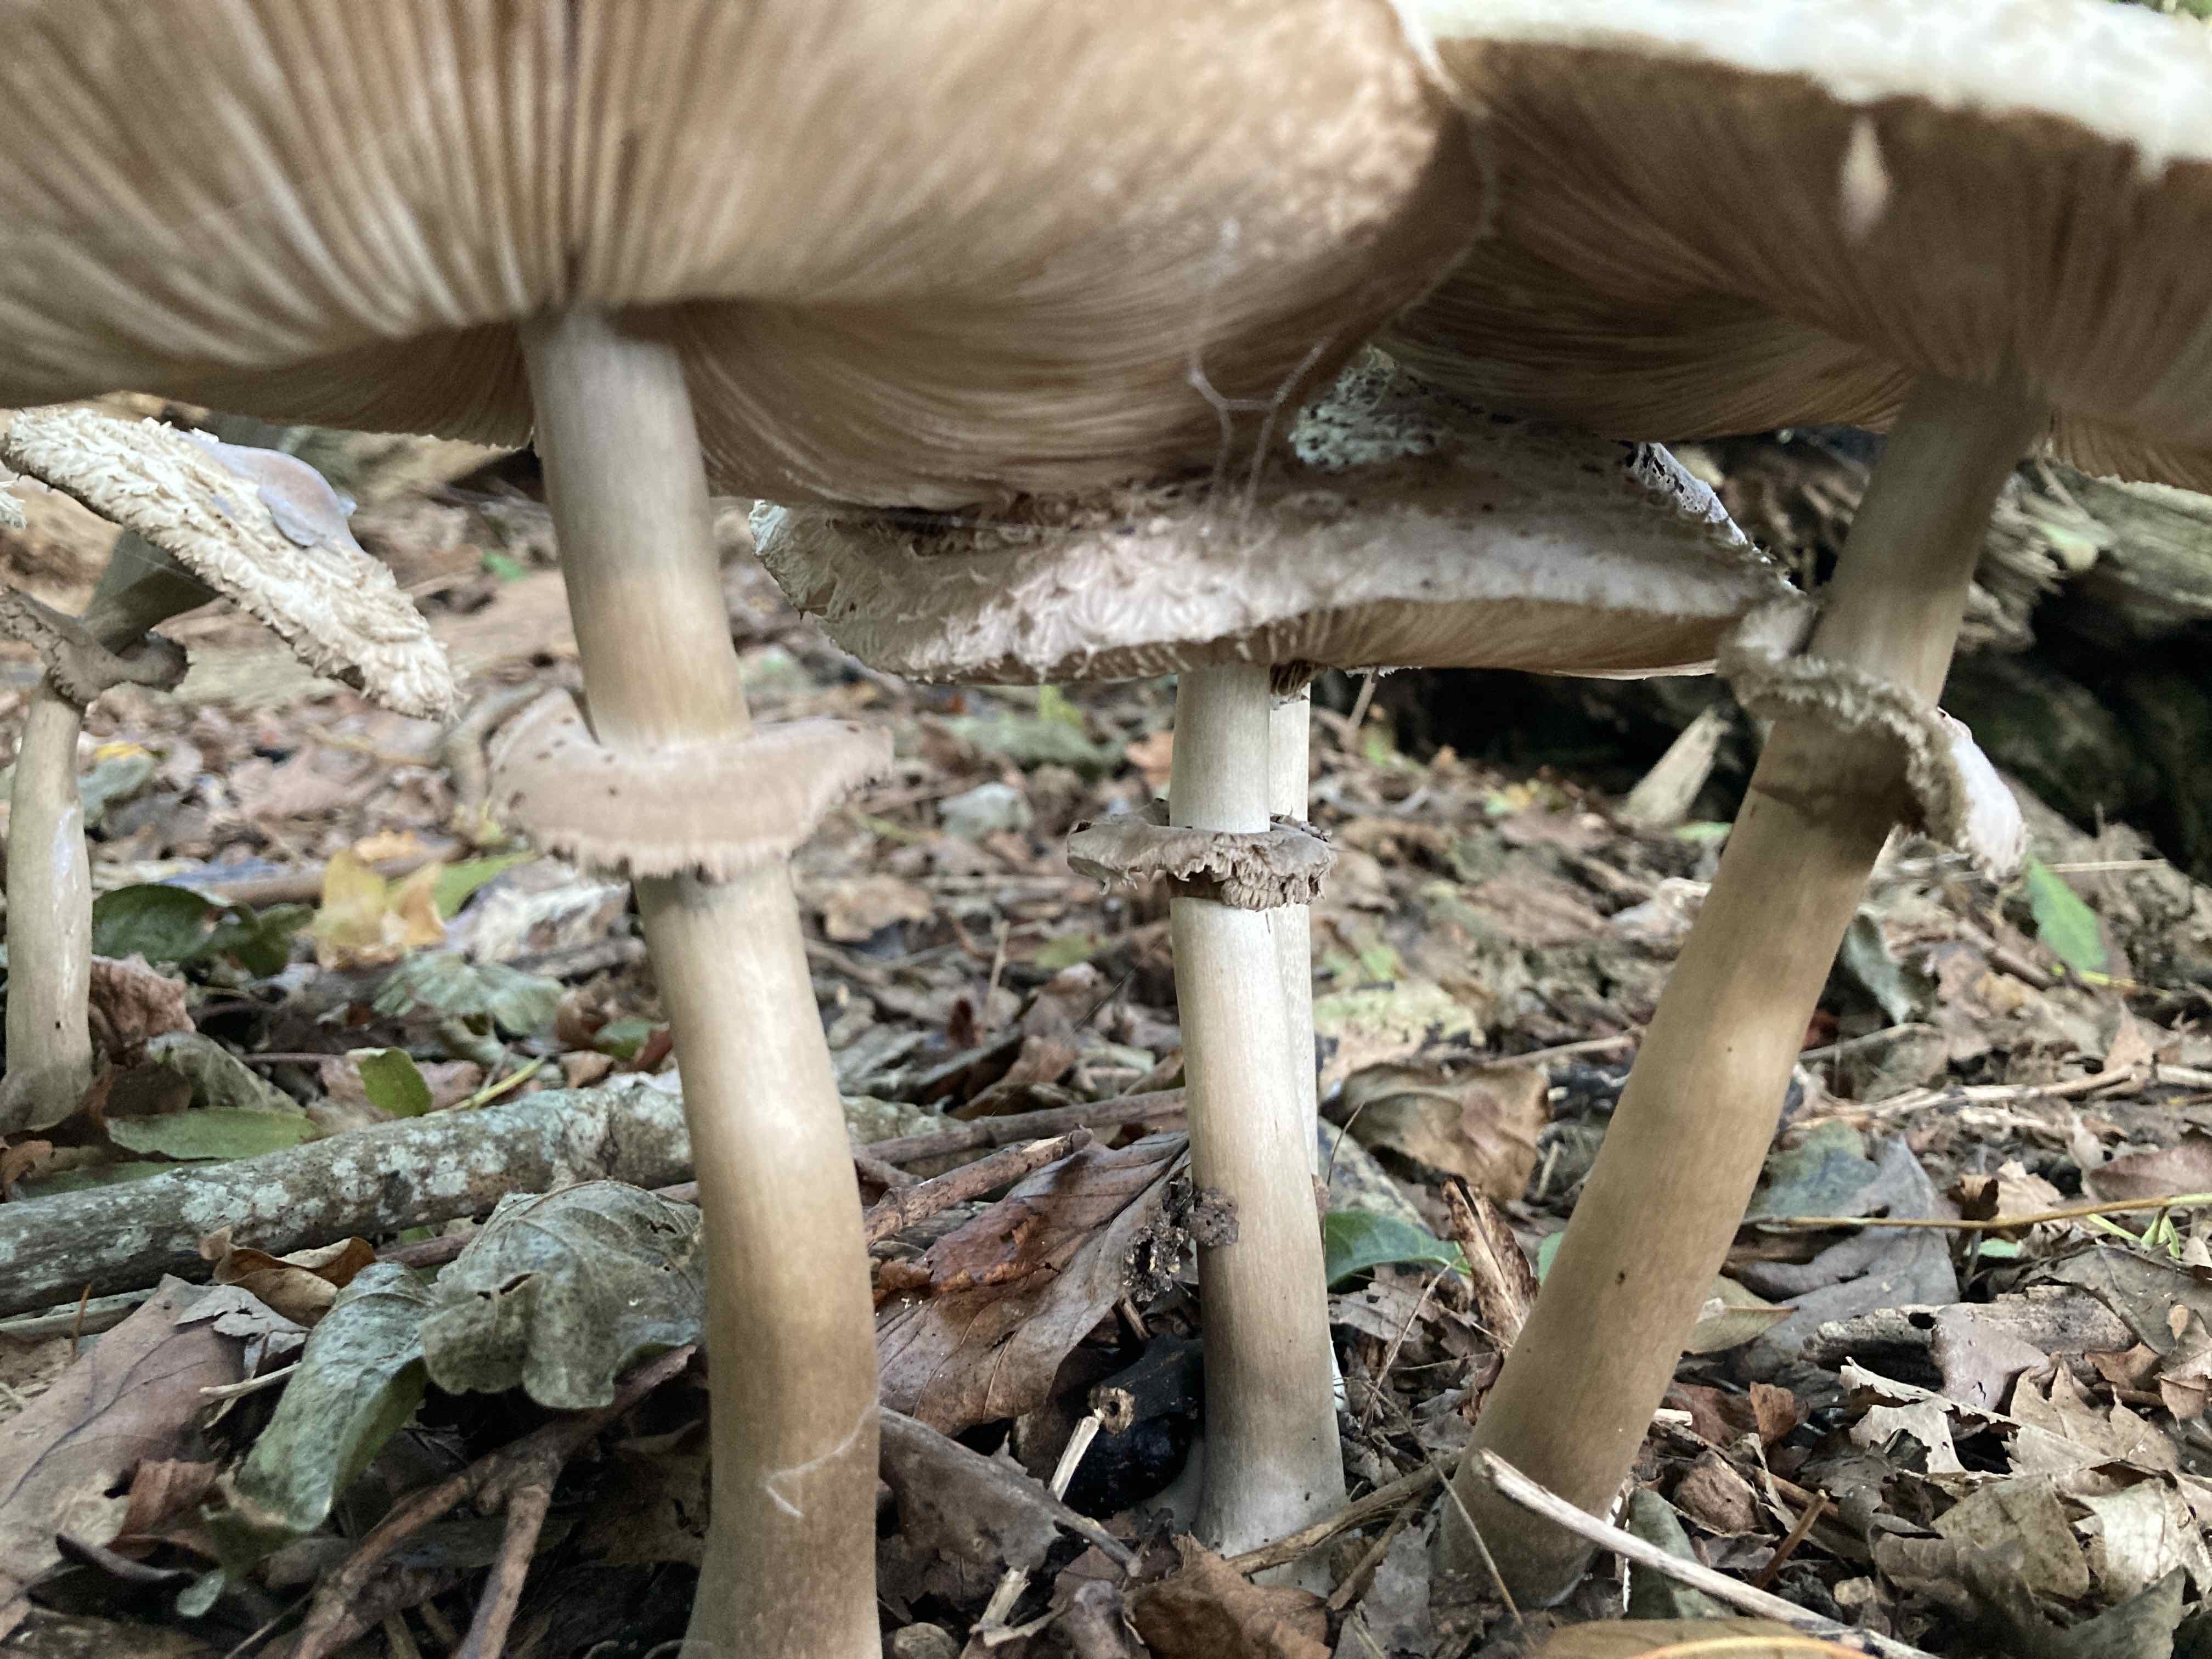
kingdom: Fungi
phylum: Basidiomycota
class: Agaricomycetes
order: Agaricales
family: Agaricaceae
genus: Chlorophyllum
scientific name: Chlorophyllum rhacodes
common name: ægte rabarberhat
